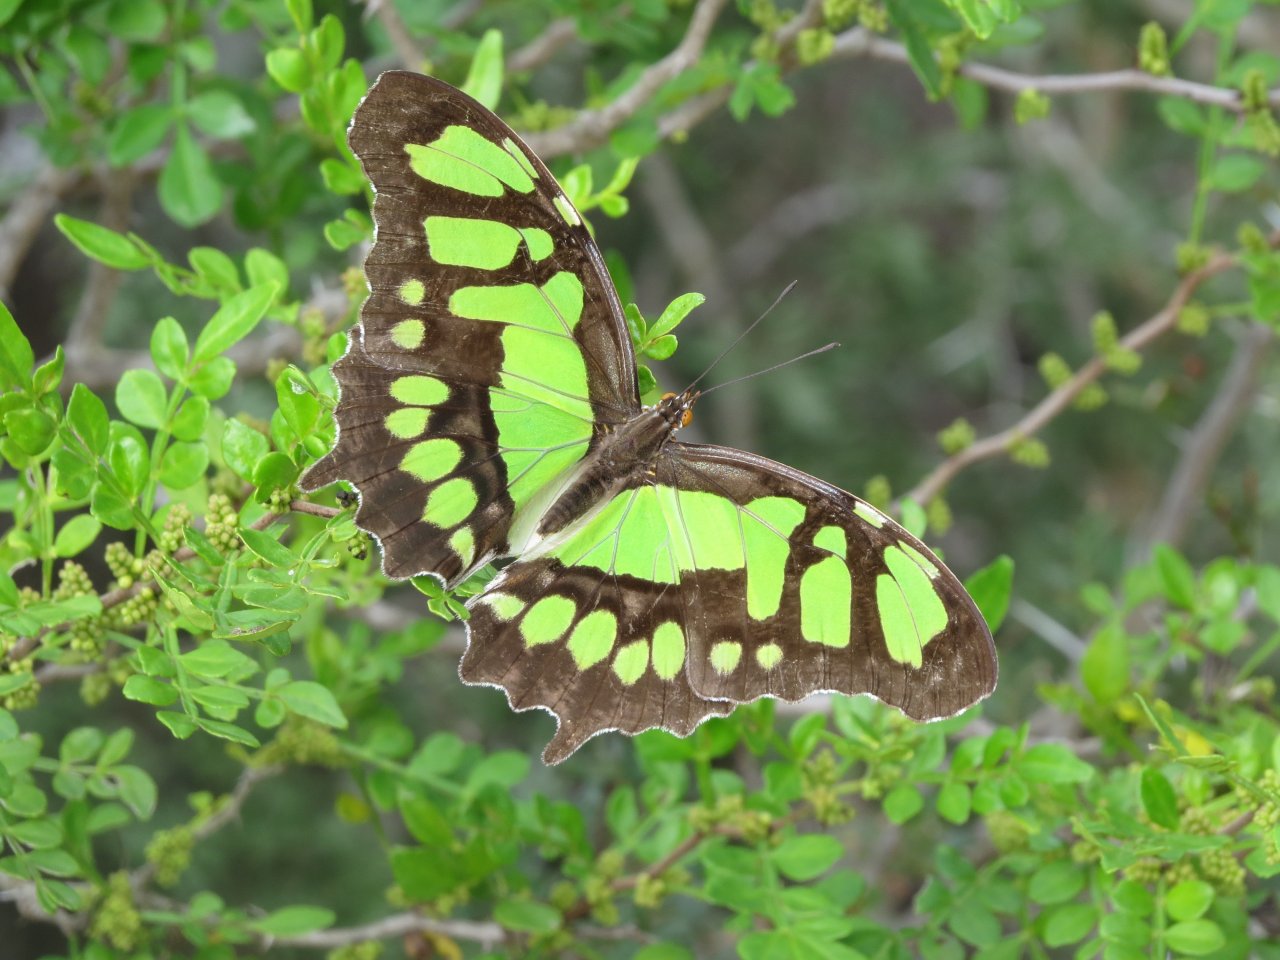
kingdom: Animalia
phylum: Arthropoda
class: Insecta
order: Lepidoptera
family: Nymphalidae
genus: Siproeta
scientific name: Siproeta stelenes
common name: Malachite
